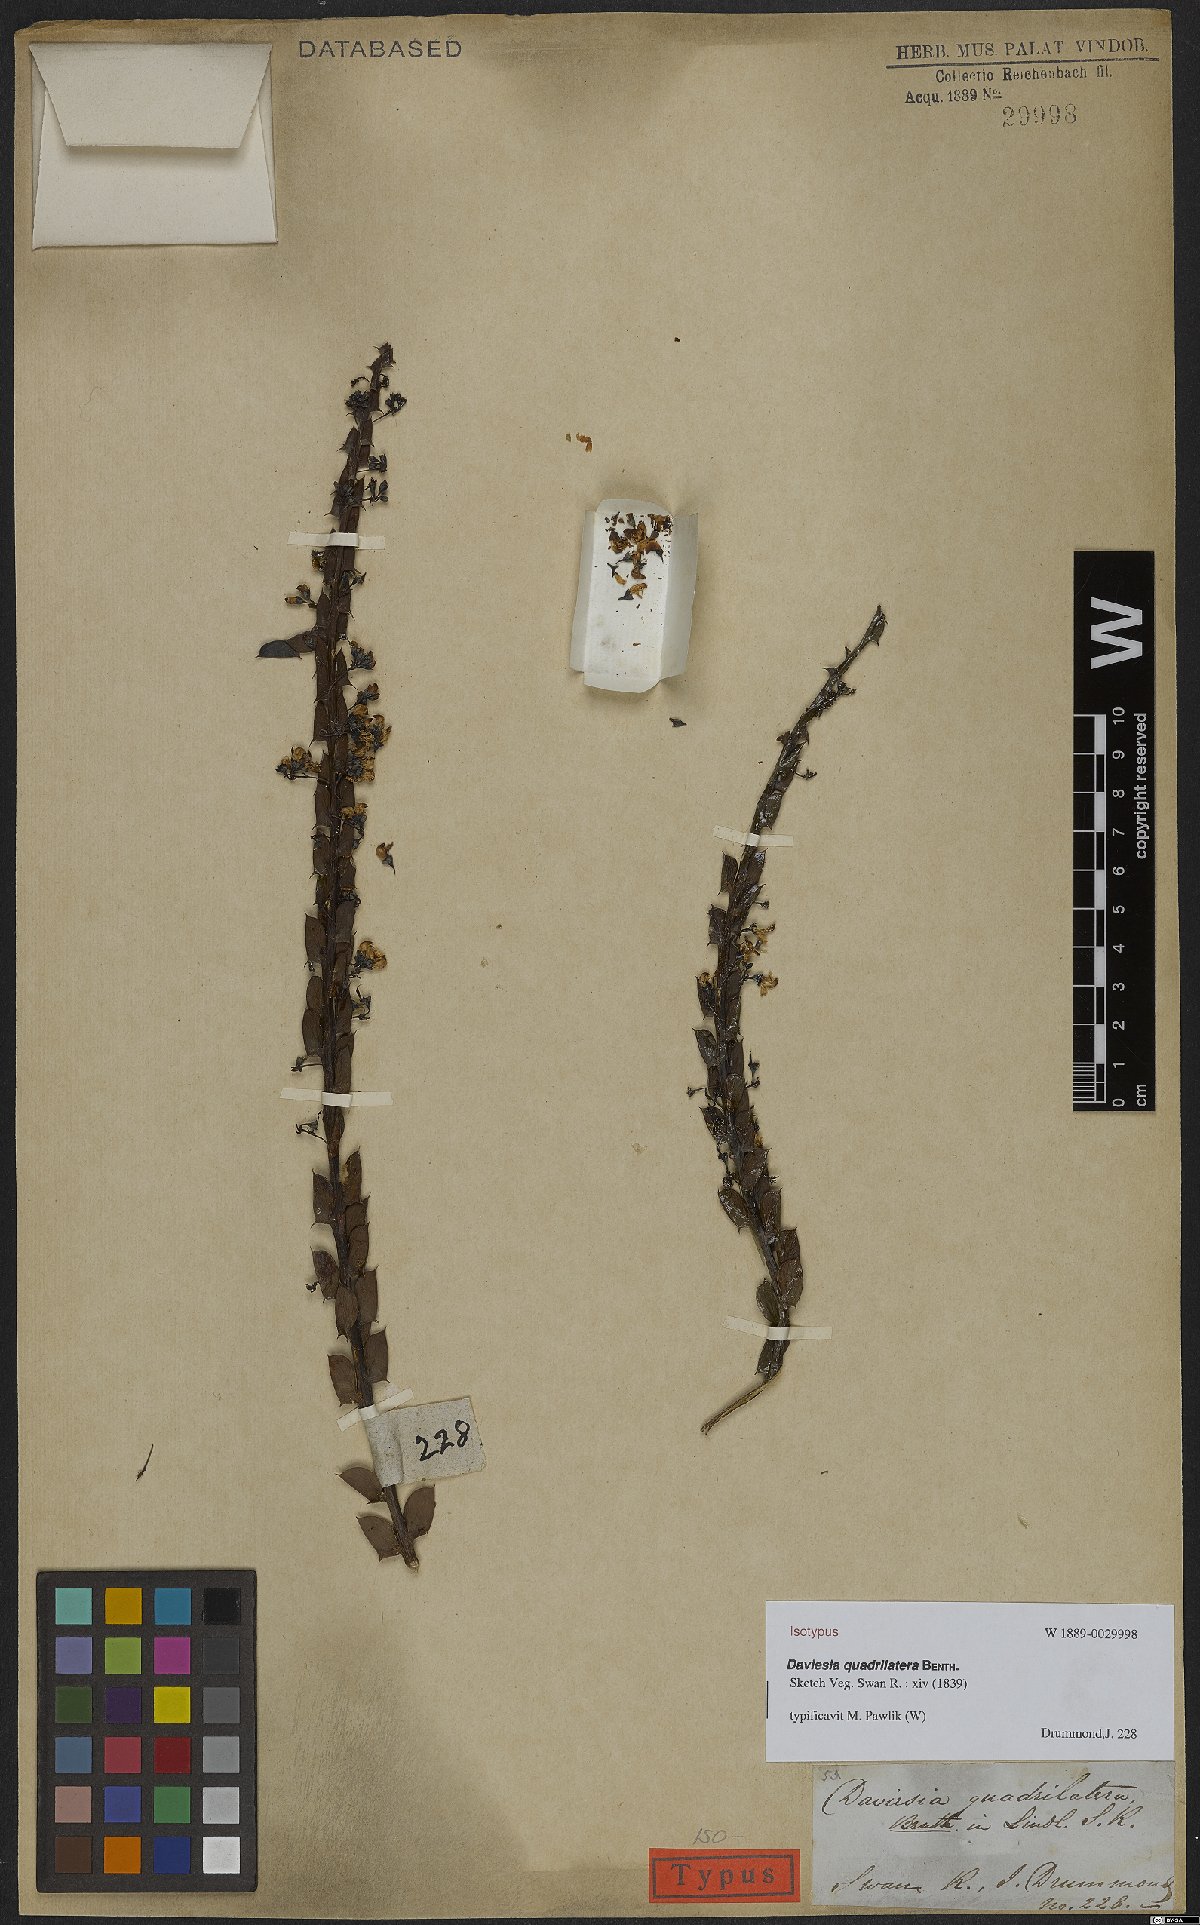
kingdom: Plantae
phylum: Tracheophyta
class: Magnoliopsida
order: Fabales
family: Fabaceae
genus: Daviesia
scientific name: Daviesia quadrilatera
